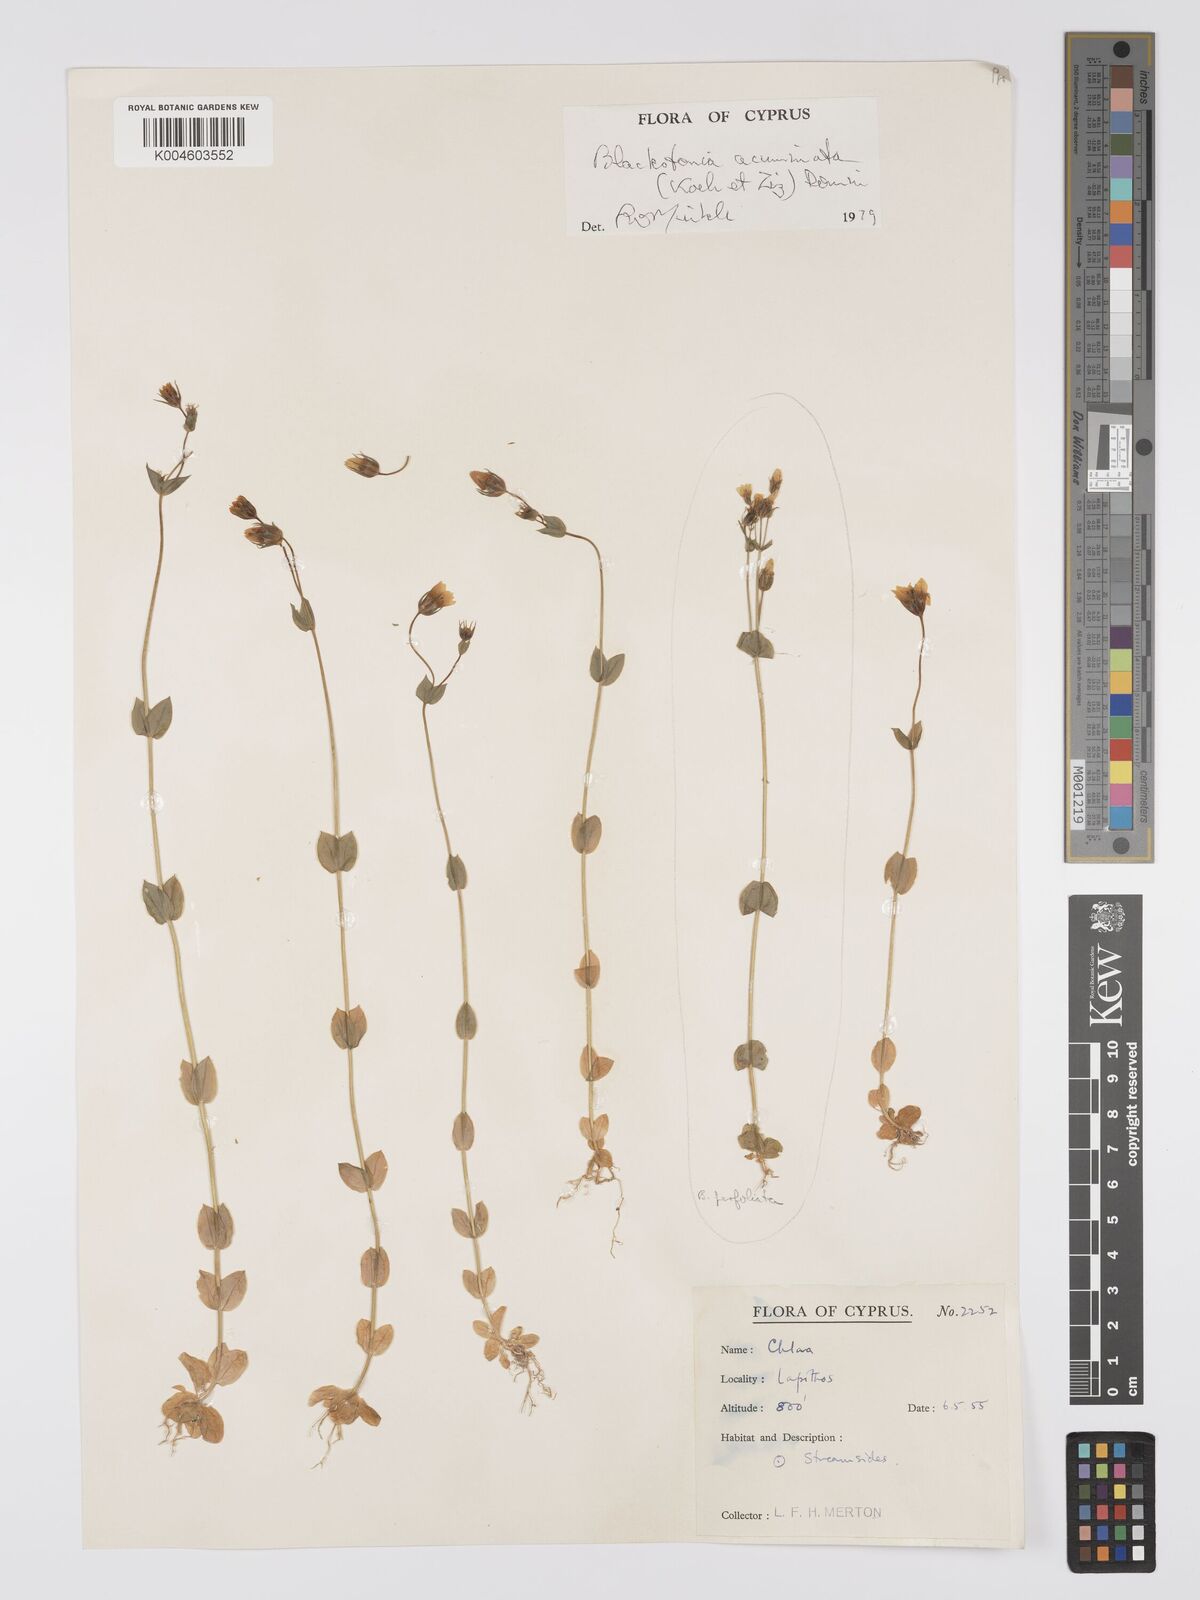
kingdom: Plantae
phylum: Tracheophyta
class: Magnoliopsida
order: Gentianales
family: Gentianaceae
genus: Blackstonia
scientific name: Blackstonia acuminata
